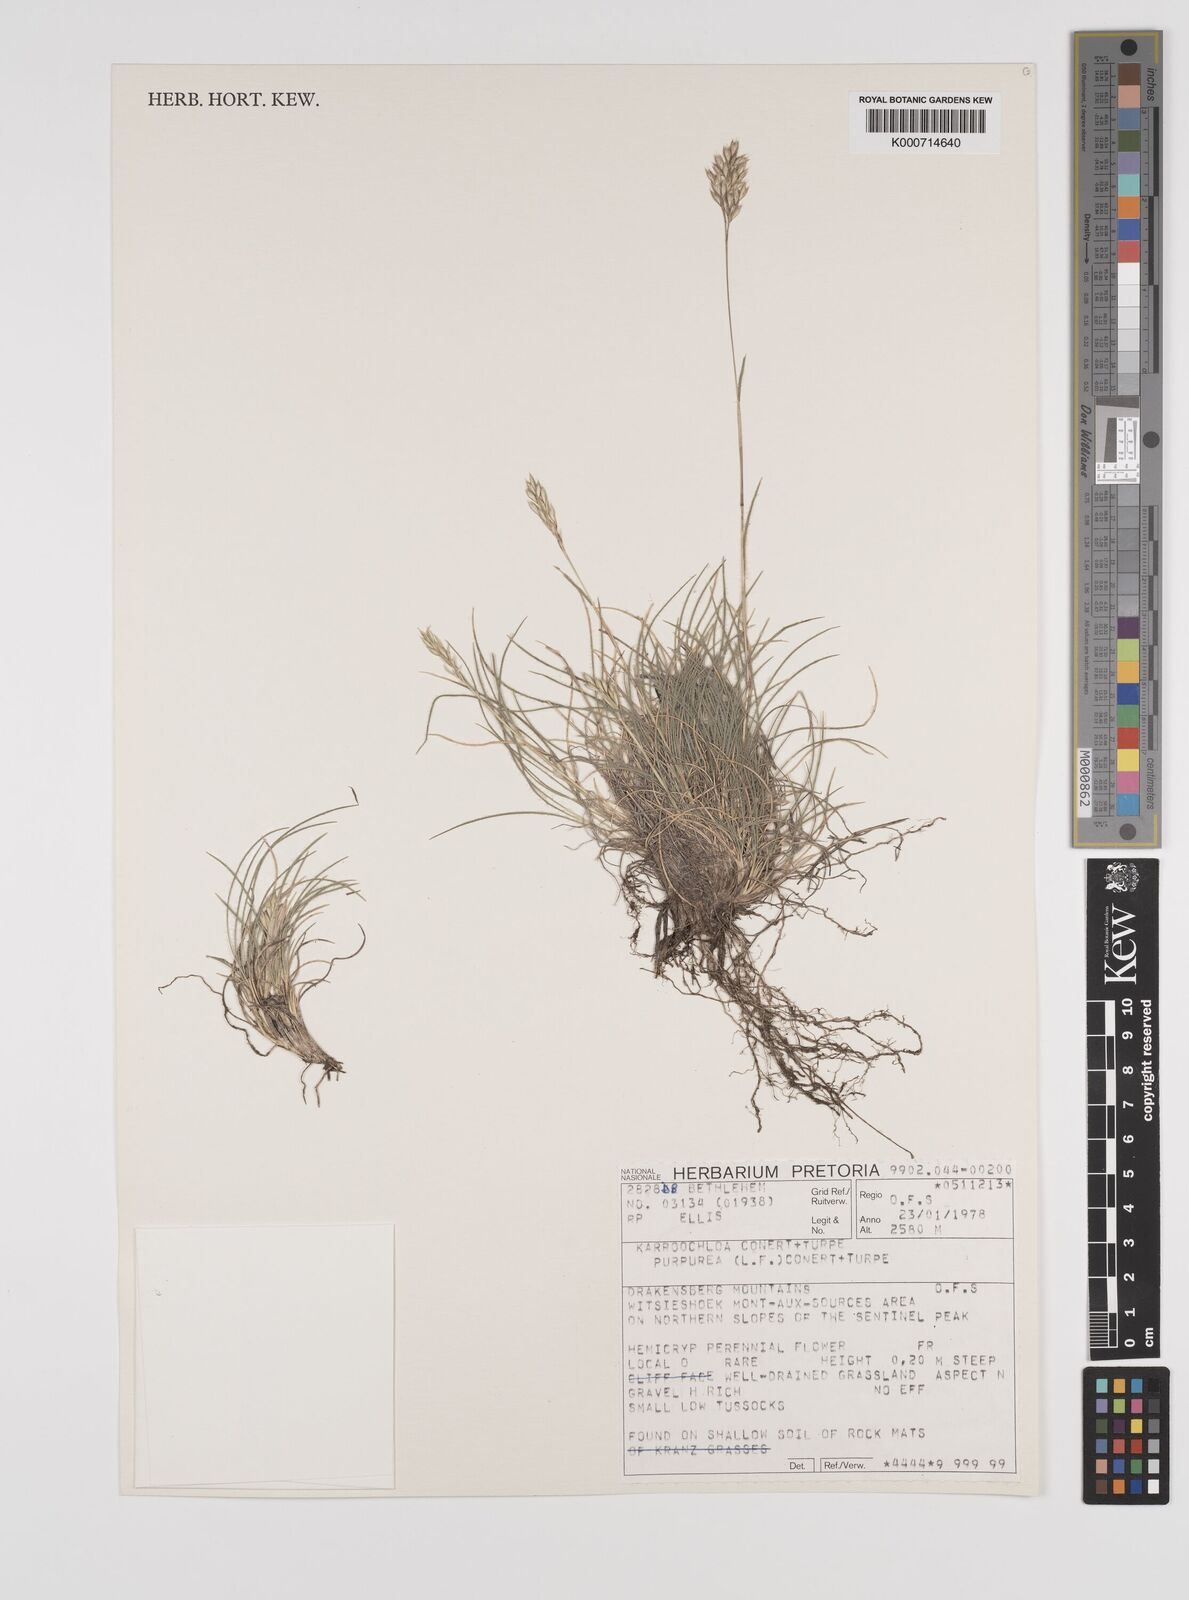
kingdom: Plantae
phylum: Tracheophyta
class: Liliopsida
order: Poales
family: Poaceae
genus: Rytidosperma
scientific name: Rytidosperma
